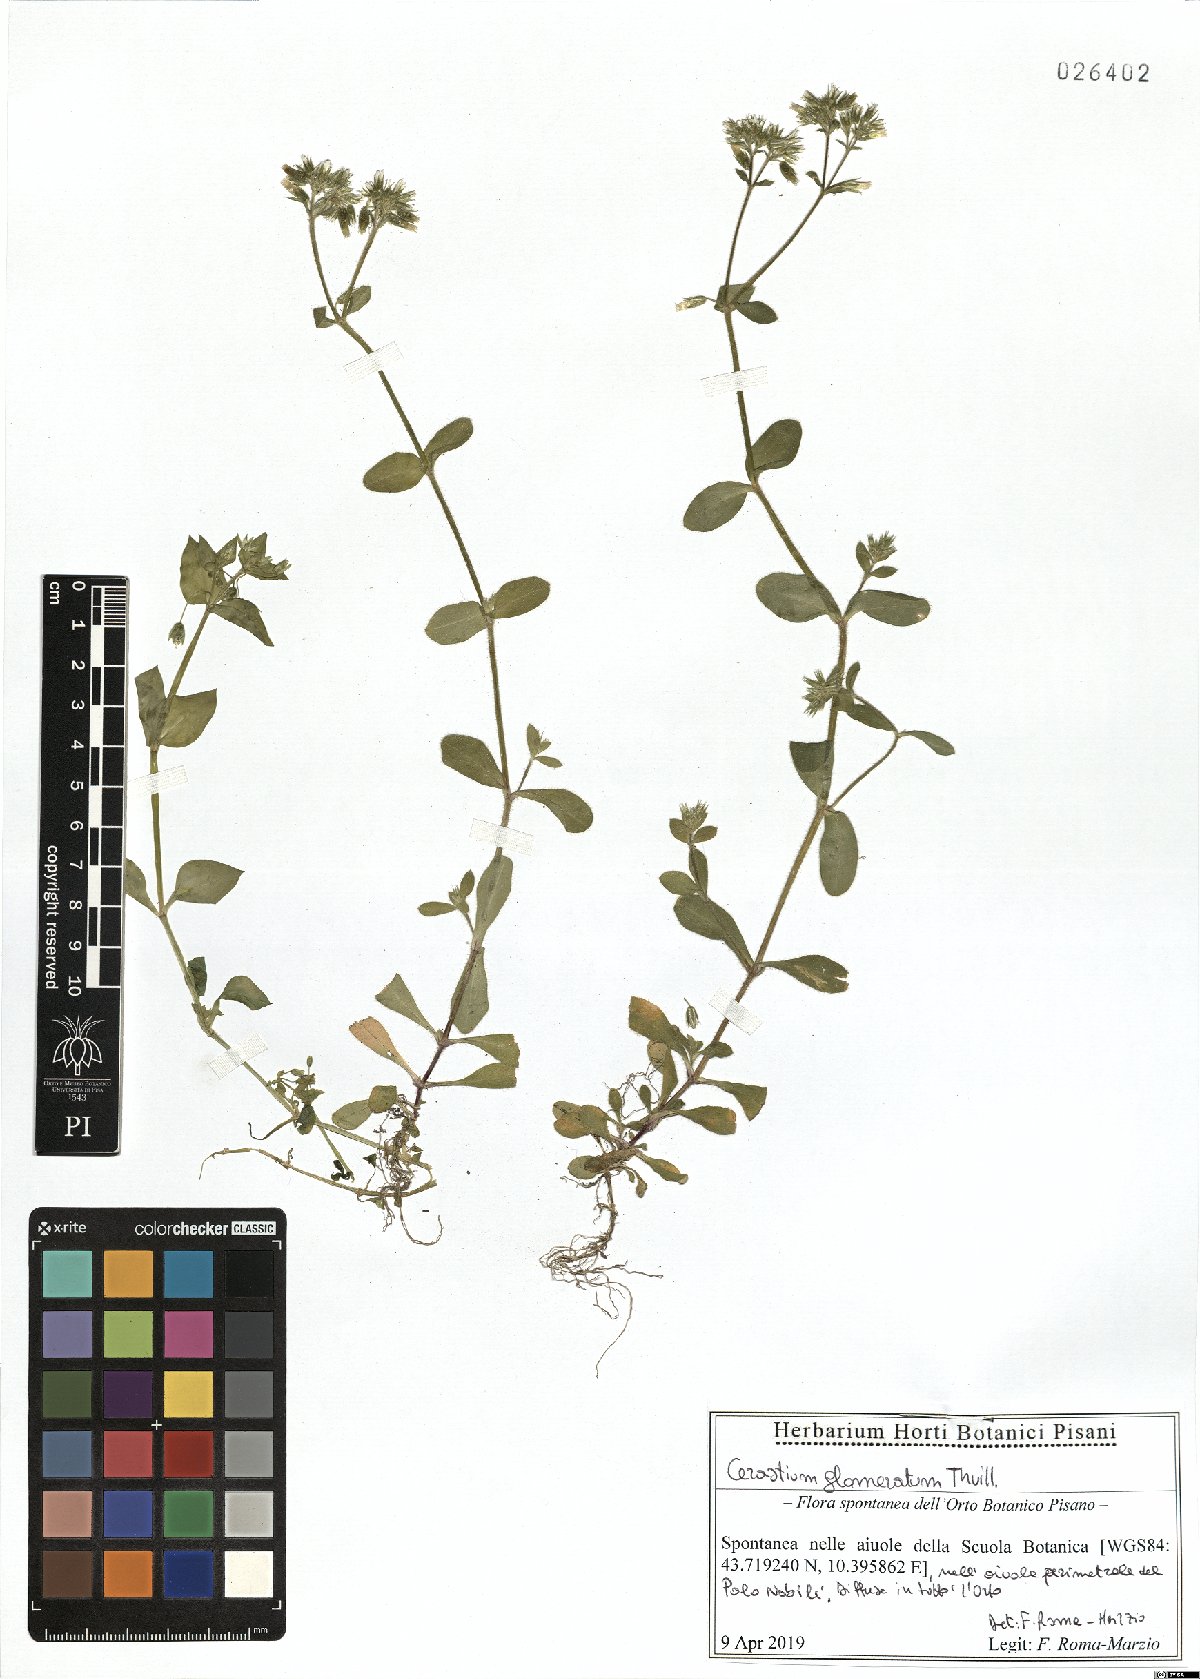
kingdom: Plantae
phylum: Tracheophyta
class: Magnoliopsida
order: Caryophyllales
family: Caryophyllaceae
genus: Cerastium
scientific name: Cerastium glomeratum
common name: Sticky chickweed
